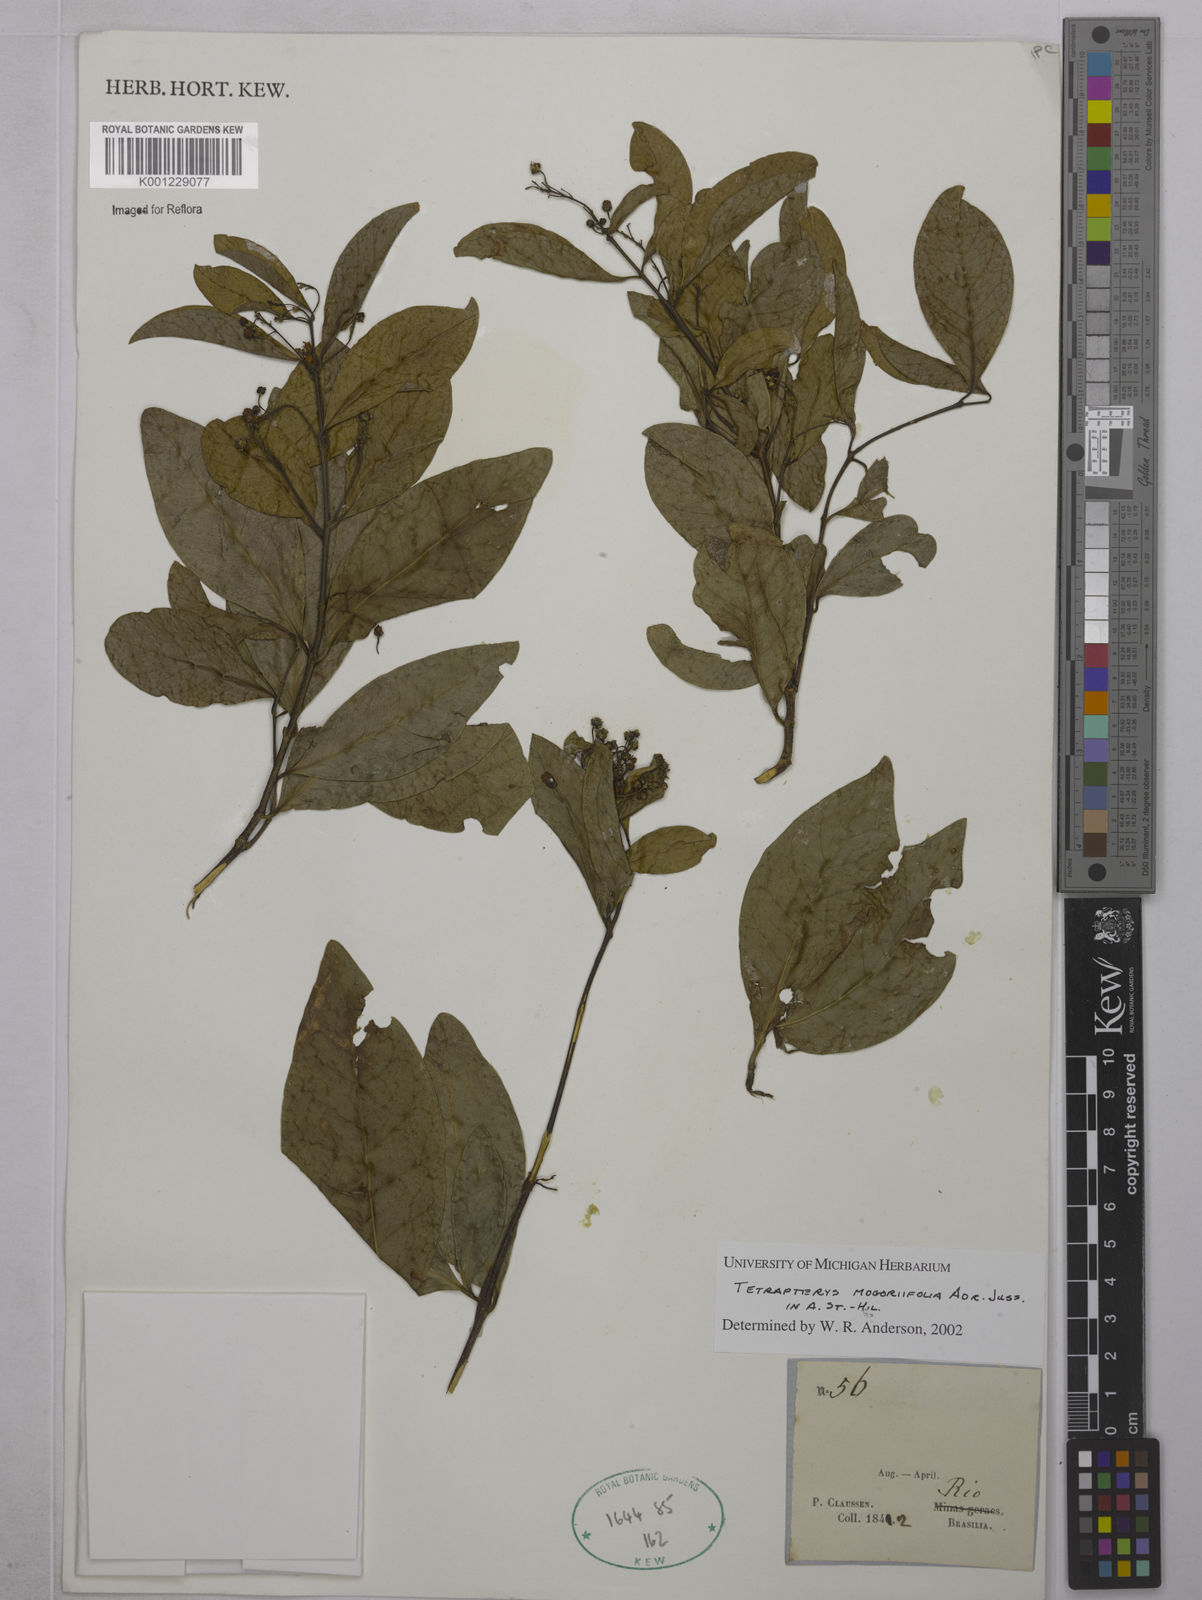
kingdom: Plantae
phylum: Tracheophyta
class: Magnoliopsida
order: Malpighiales
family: Malpighiaceae
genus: Niedenzuella
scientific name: Niedenzuella mogoriifolia
